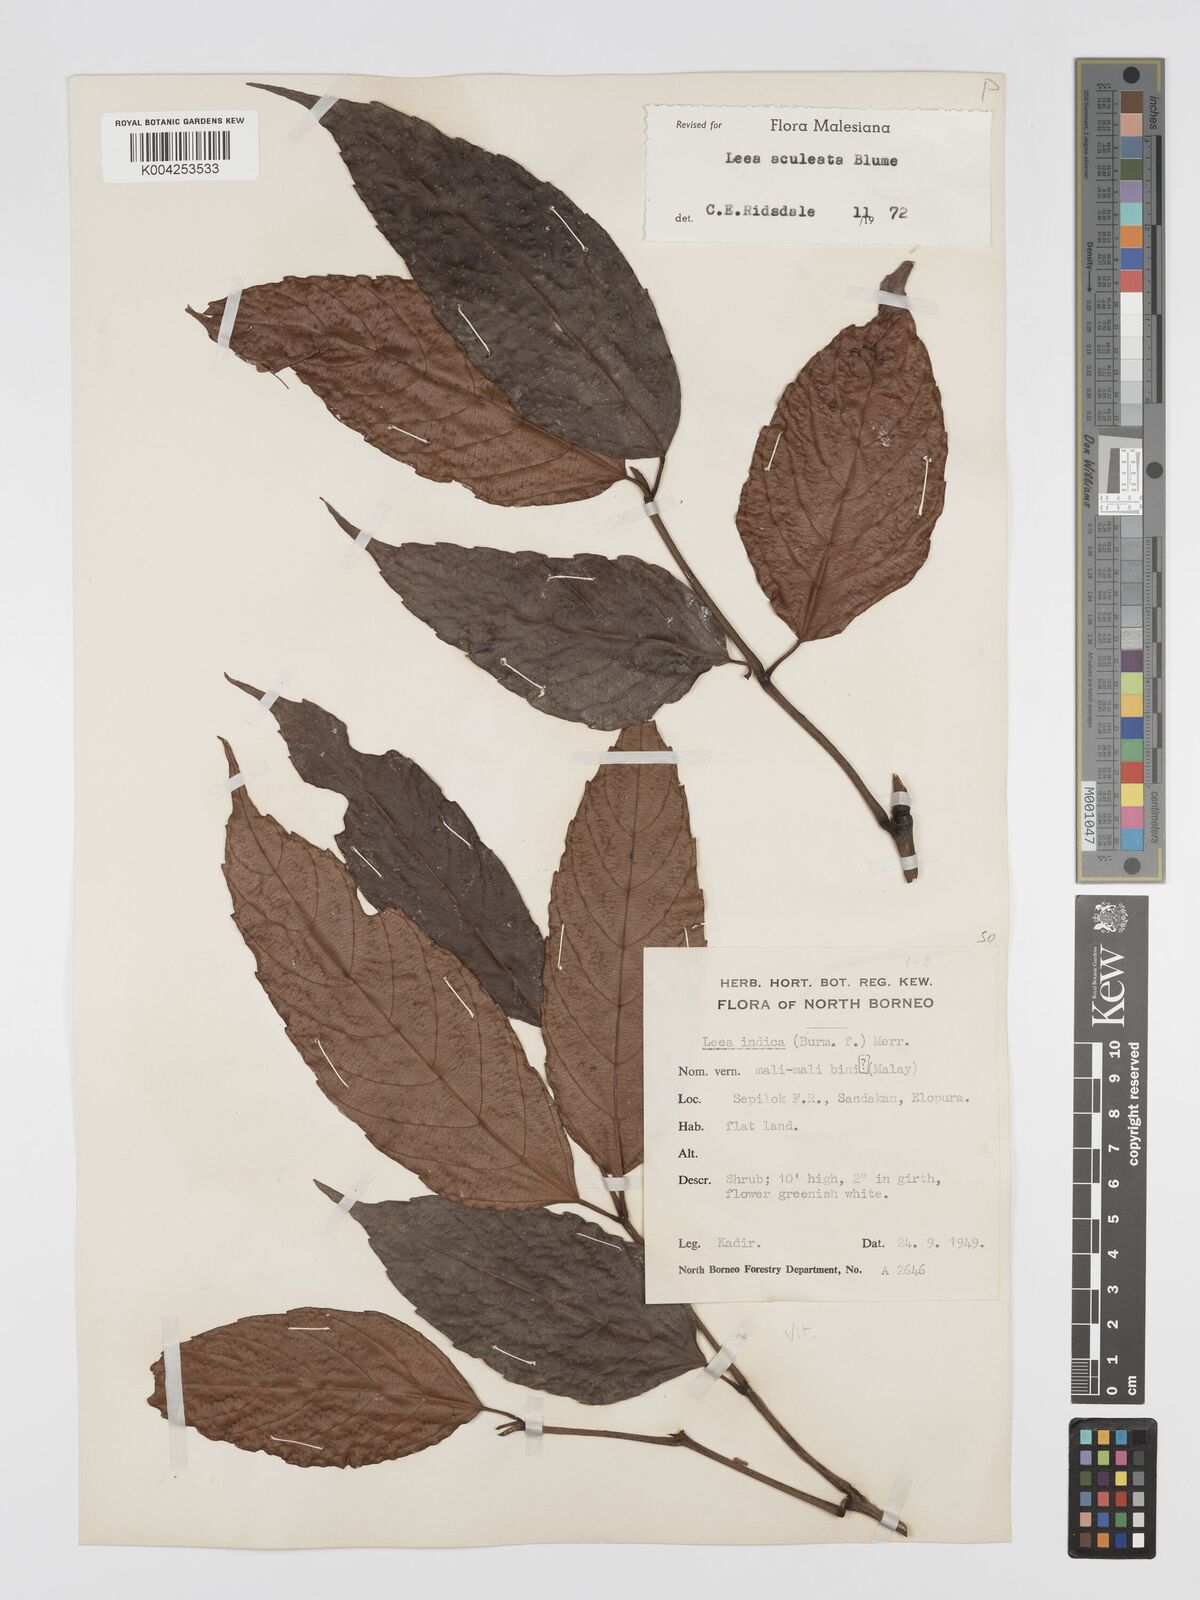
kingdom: Plantae
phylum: Tracheophyta
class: Magnoliopsida
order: Vitales
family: Vitaceae
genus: Leea
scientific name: Leea aculeata
